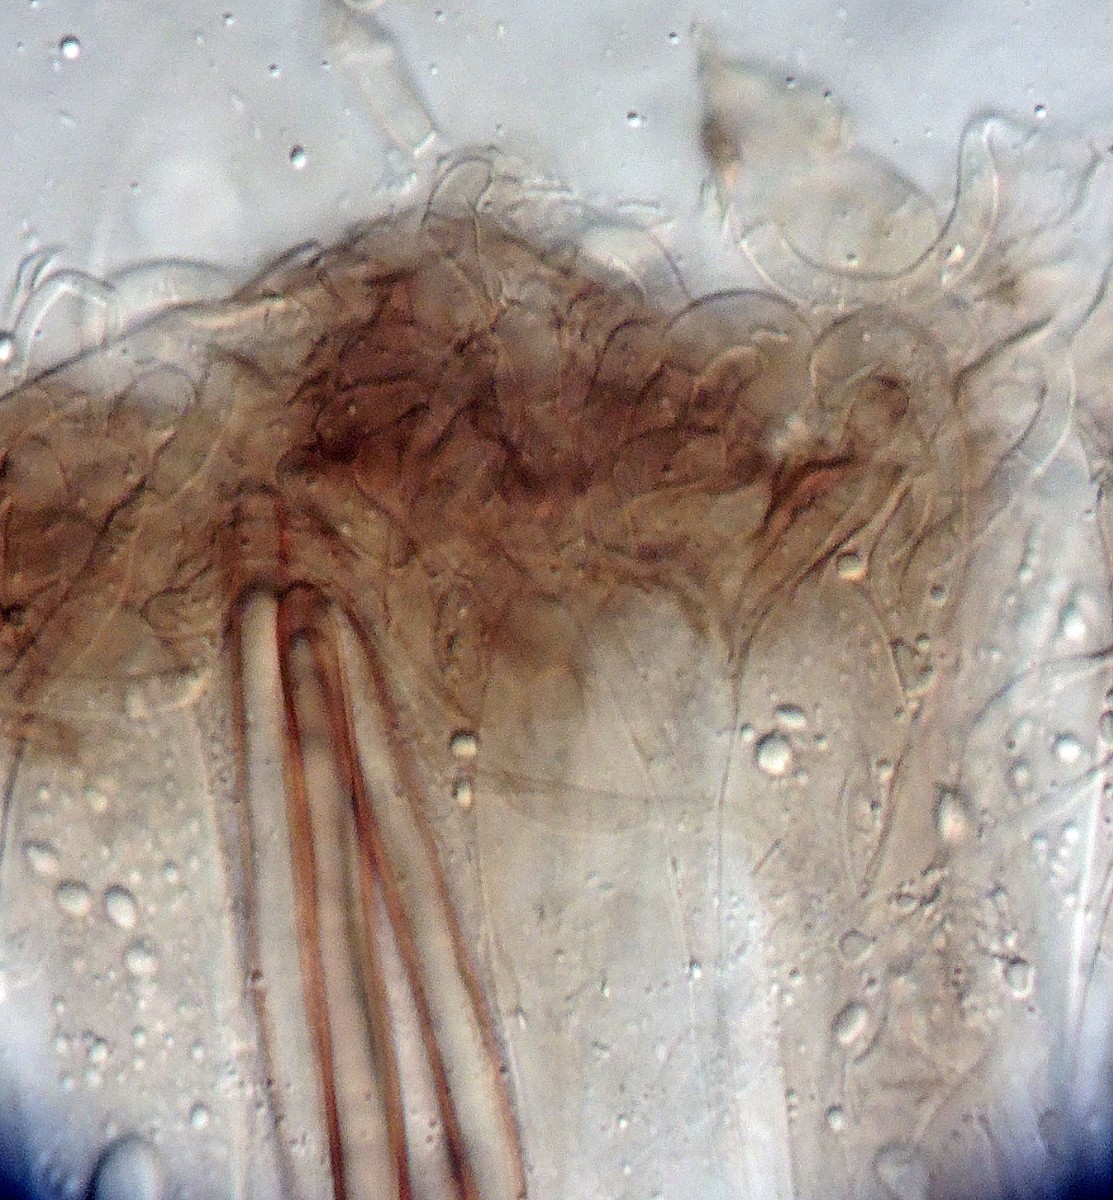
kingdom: Fungi
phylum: Ascomycota
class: Geoglossomycetes
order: Geoglossales
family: Geoglossaceae
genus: Geoglossum
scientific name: Geoglossum
